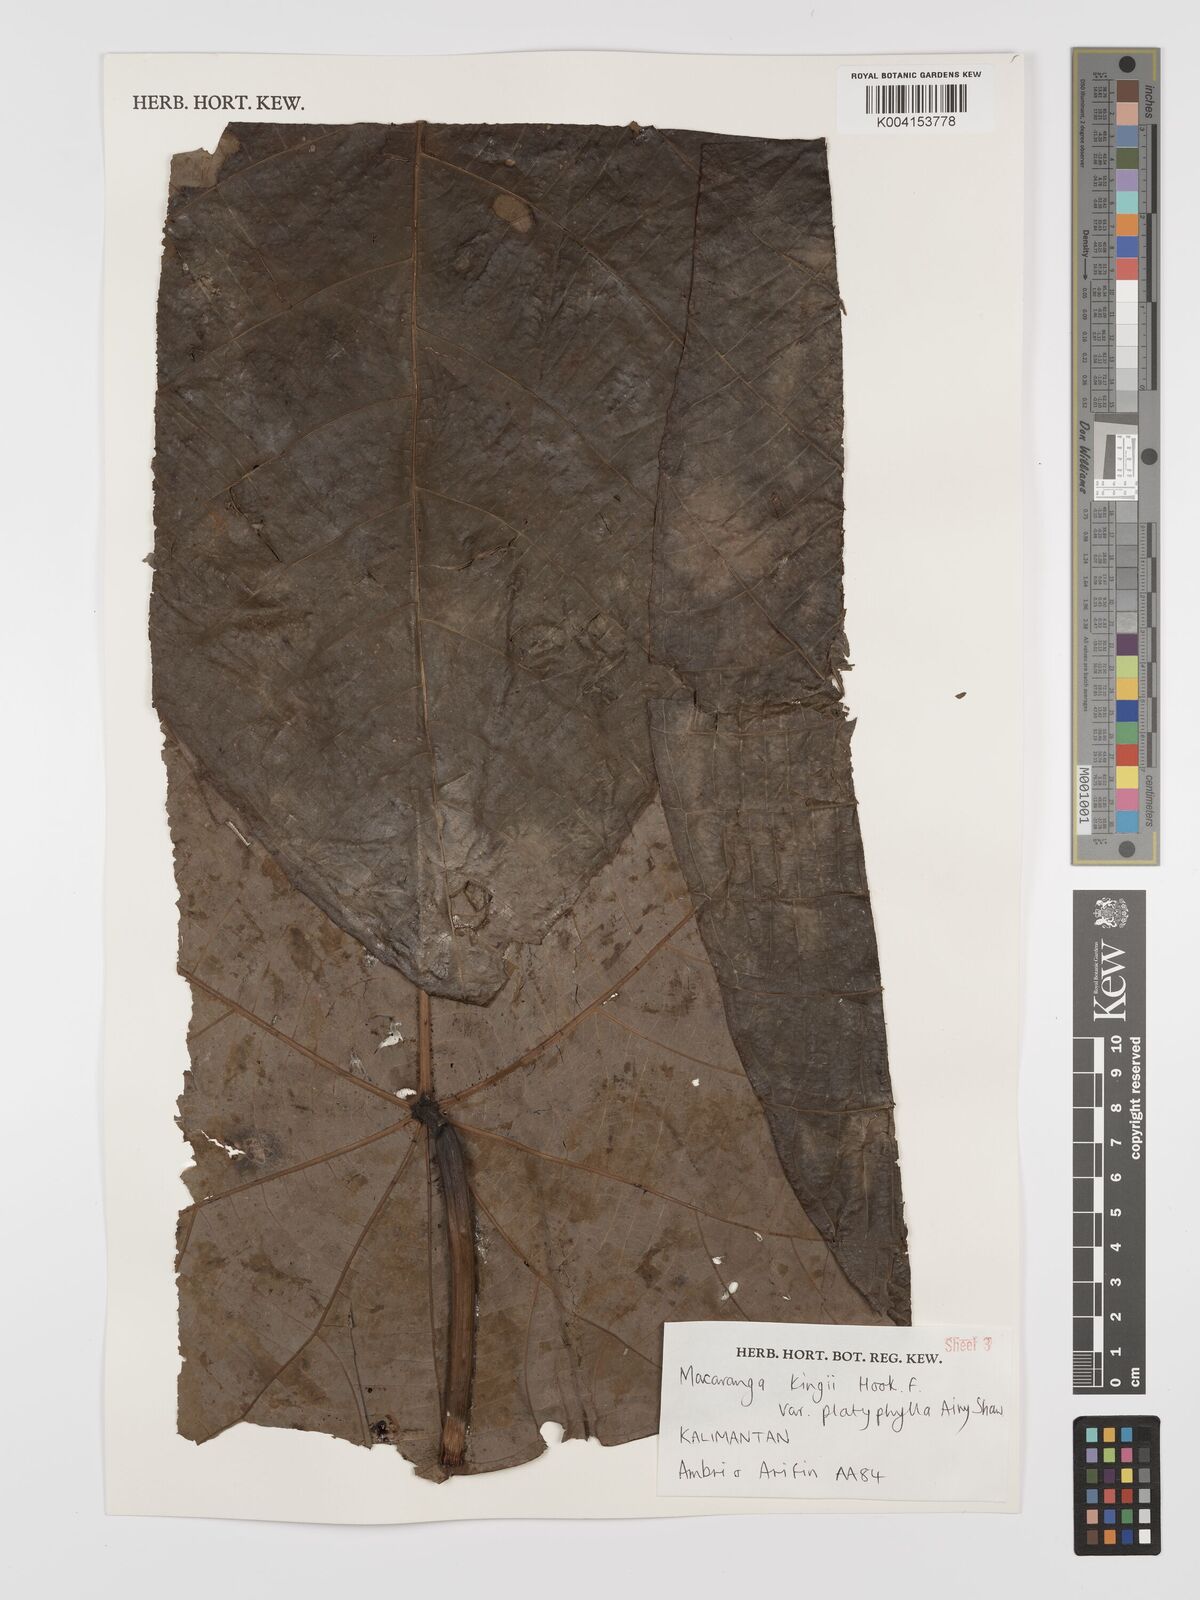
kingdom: Plantae
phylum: Tracheophyta
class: Magnoliopsida
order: Malpighiales
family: Euphorbiaceae
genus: Macaranga
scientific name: Macaranga umbrosa
